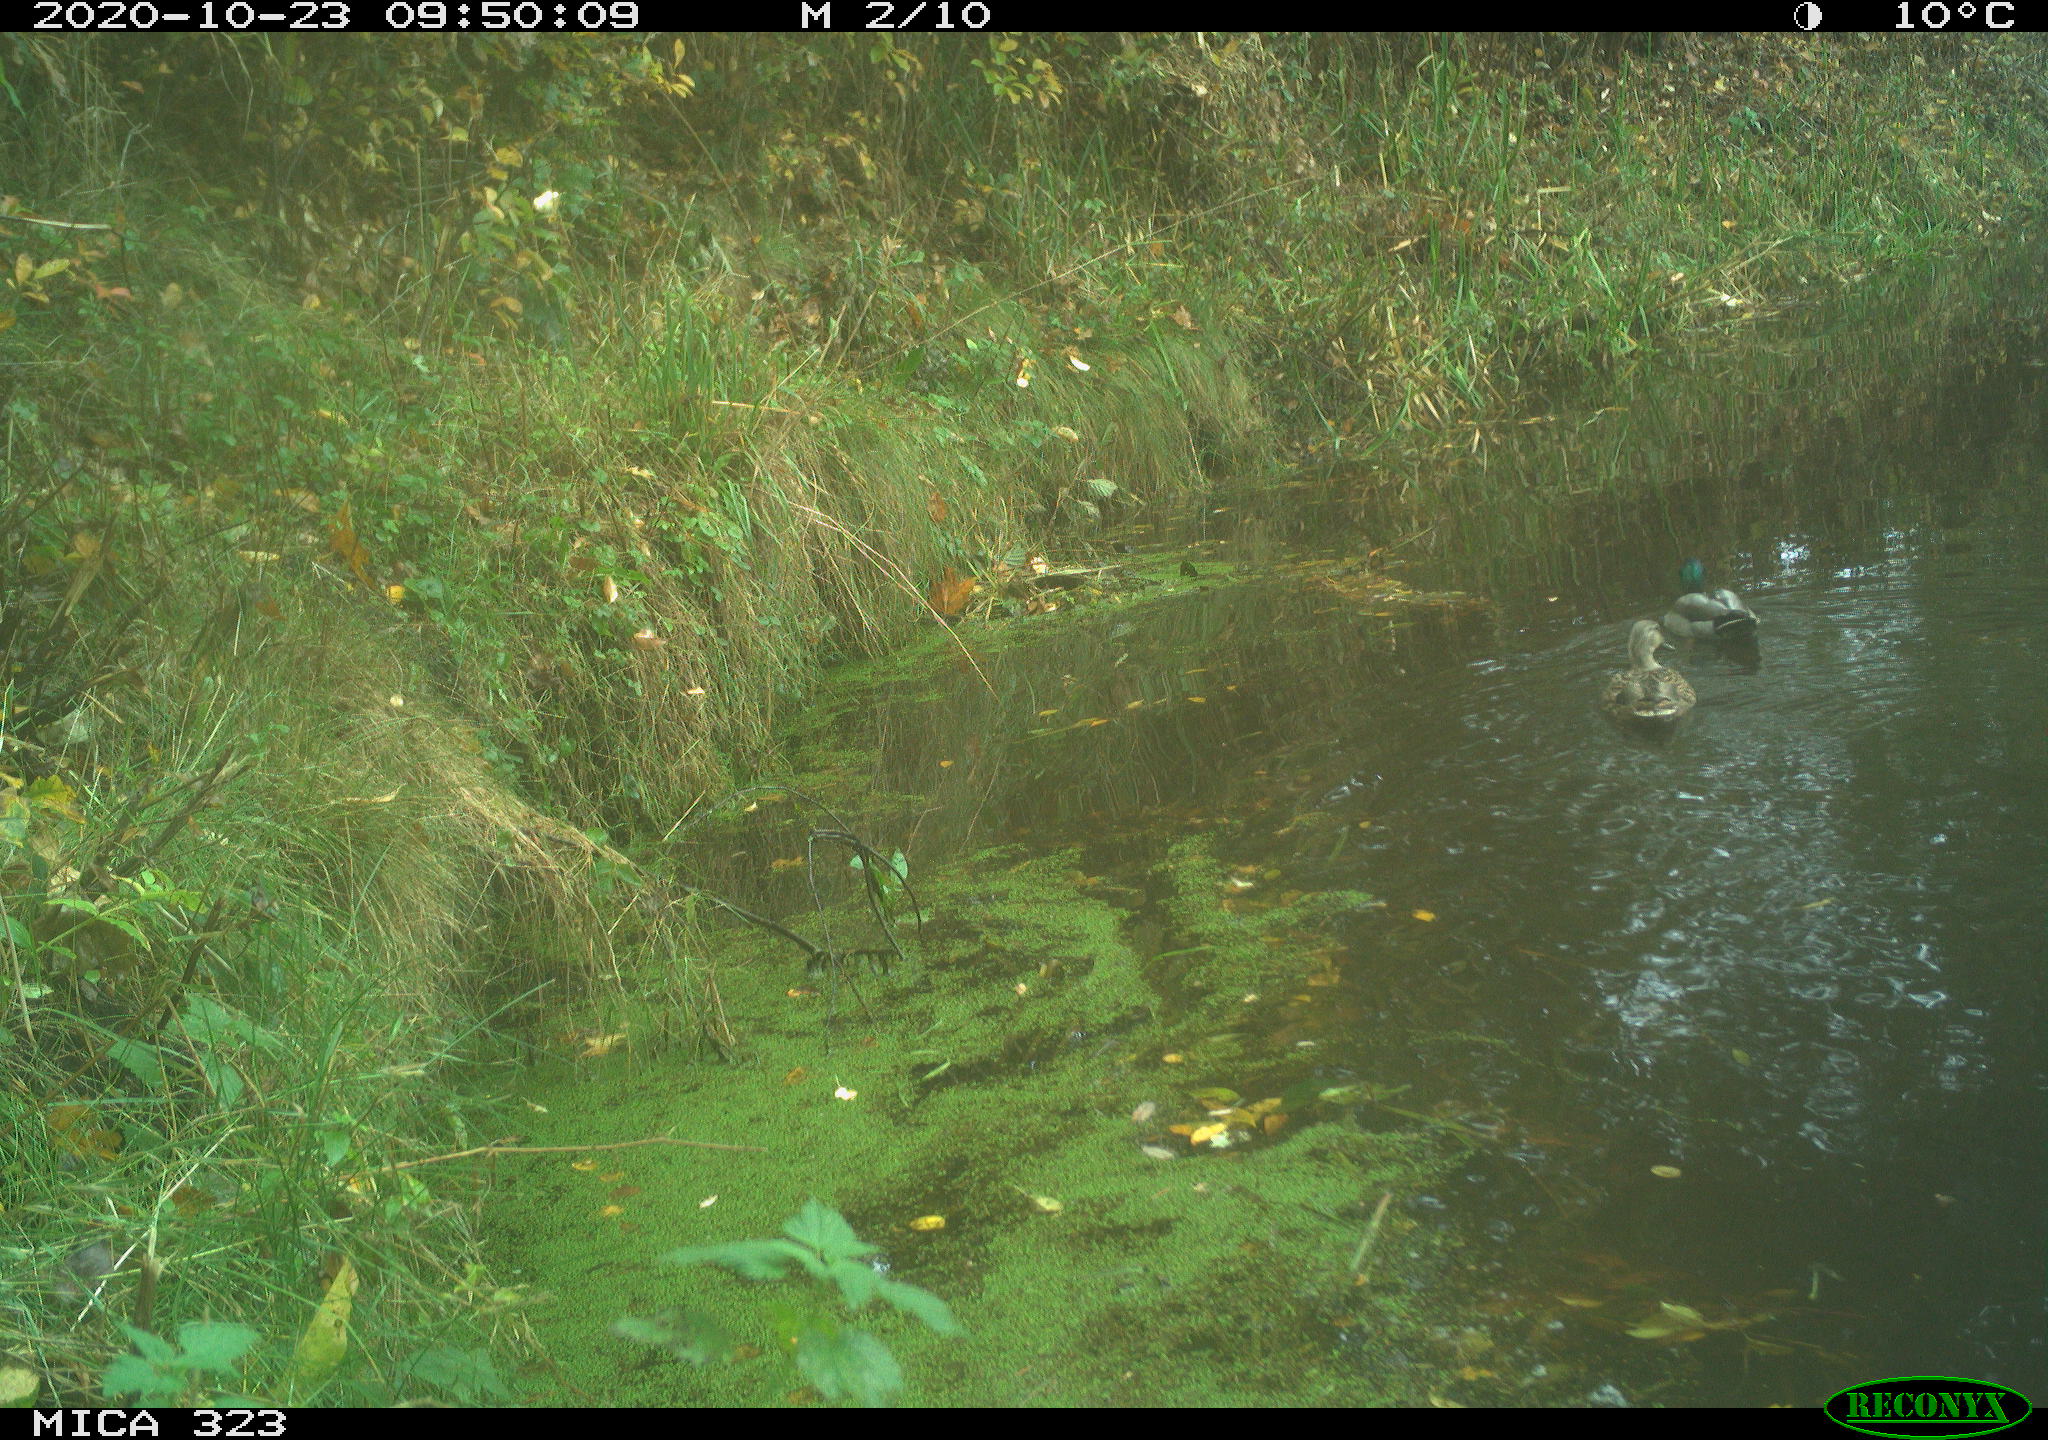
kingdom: Animalia
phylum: Chordata
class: Aves
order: Anseriformes
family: Anatidae
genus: Anas
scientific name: Anas platyrhynchos
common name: Mallard
